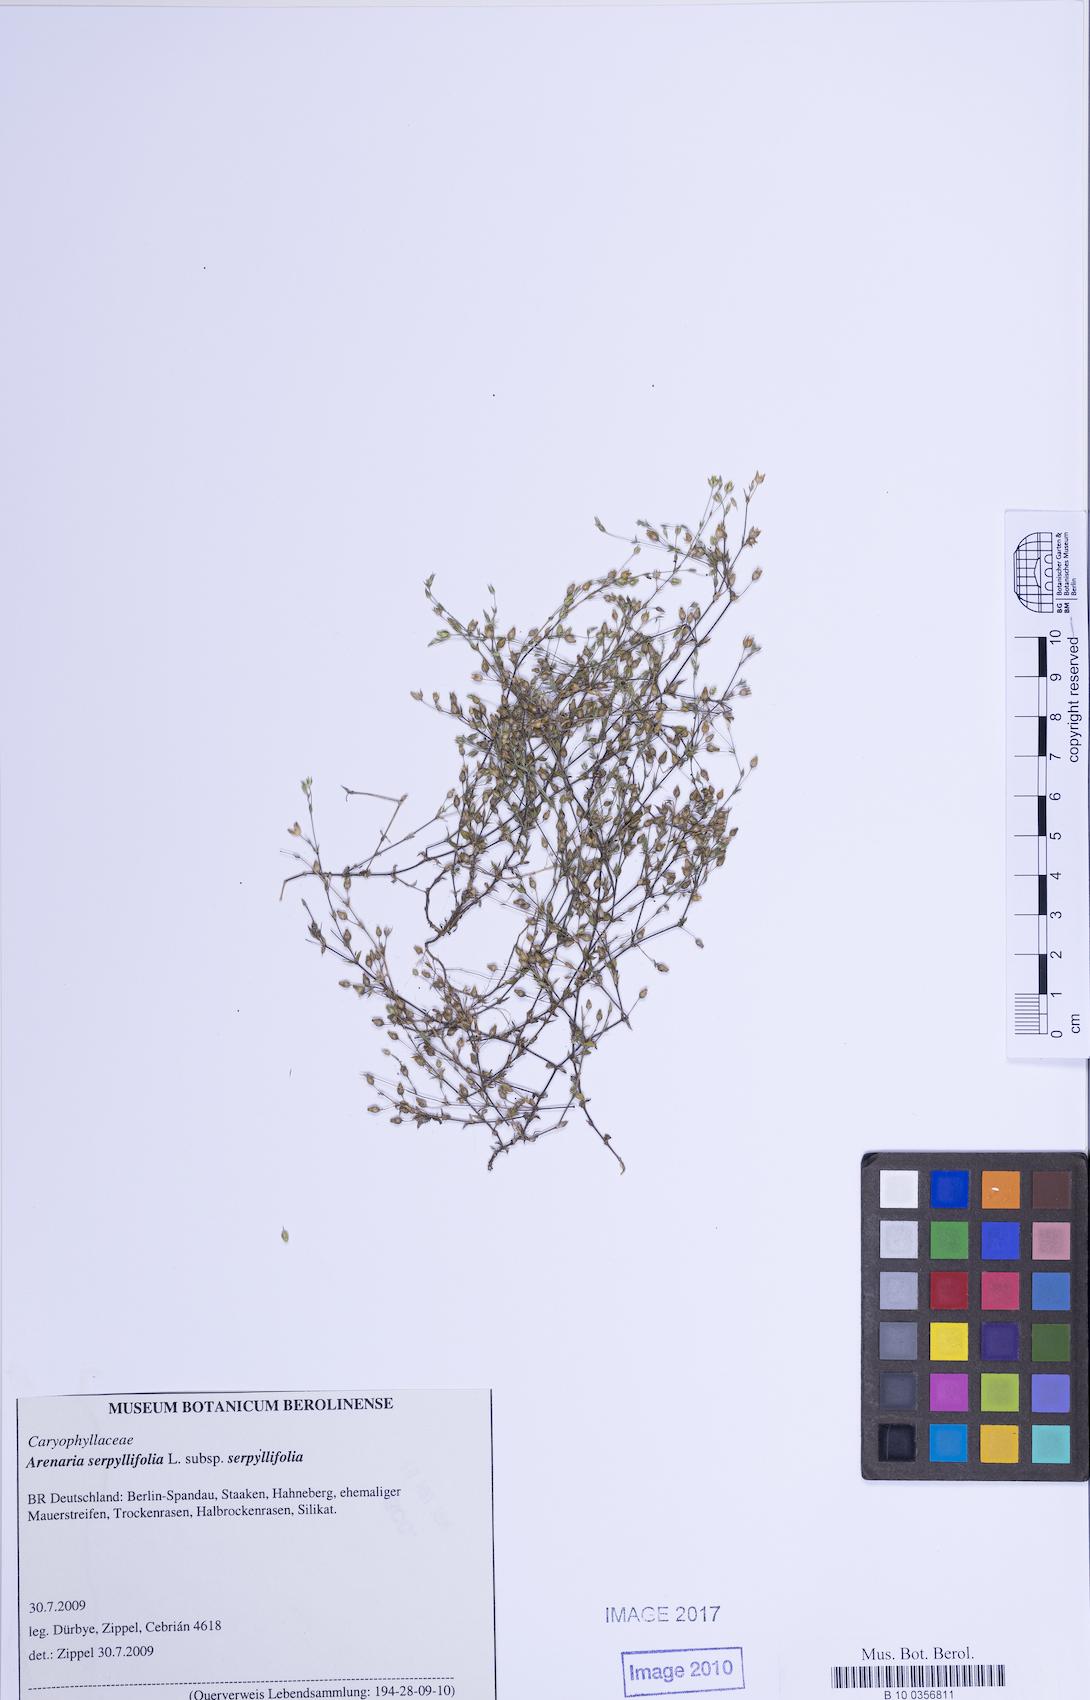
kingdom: Plantae
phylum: Tracheophyta
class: Magnoliopsida
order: Caryophyllales
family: Caryophyllaceae
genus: Arenaria
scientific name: Arenaria serpyllifolia
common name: Thyme-leaved sandwort
